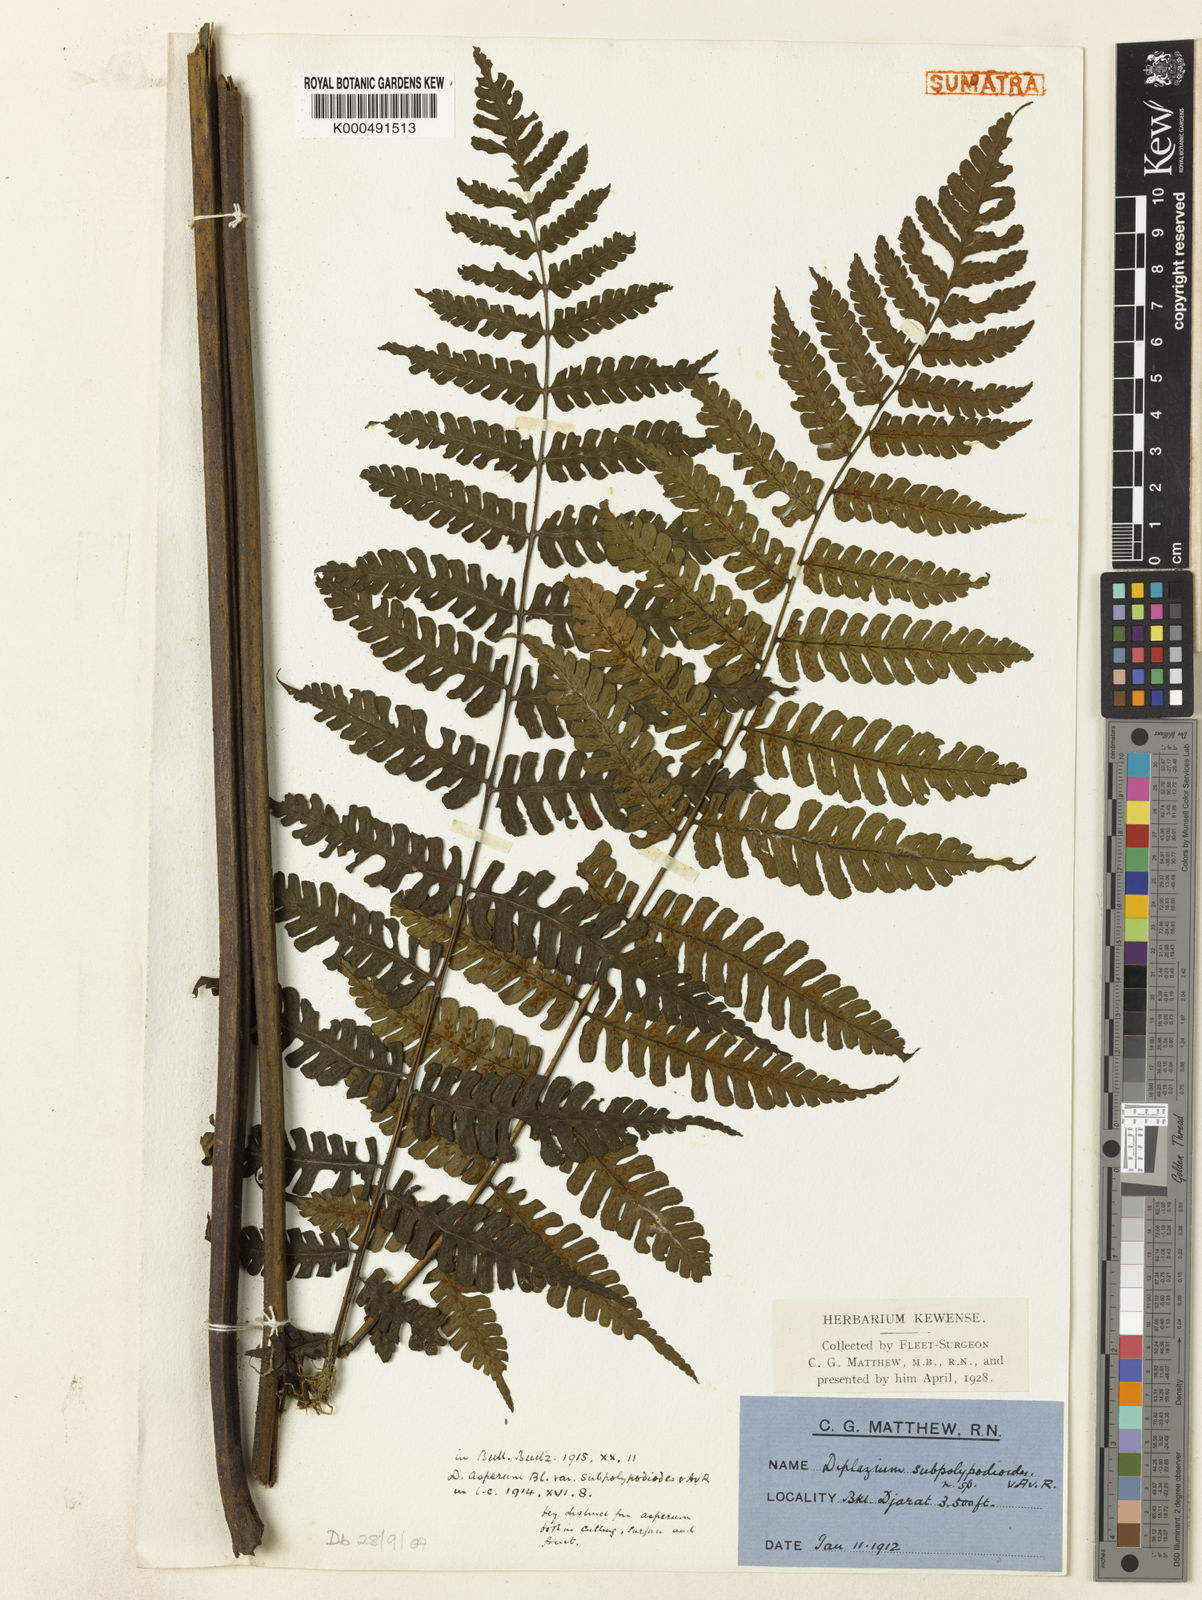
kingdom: Plantae
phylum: Tracheophyta
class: Polypodiopsida
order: Polypodiales
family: Athyriaceae
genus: Diplazium
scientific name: Diplazium subpolypodioides
